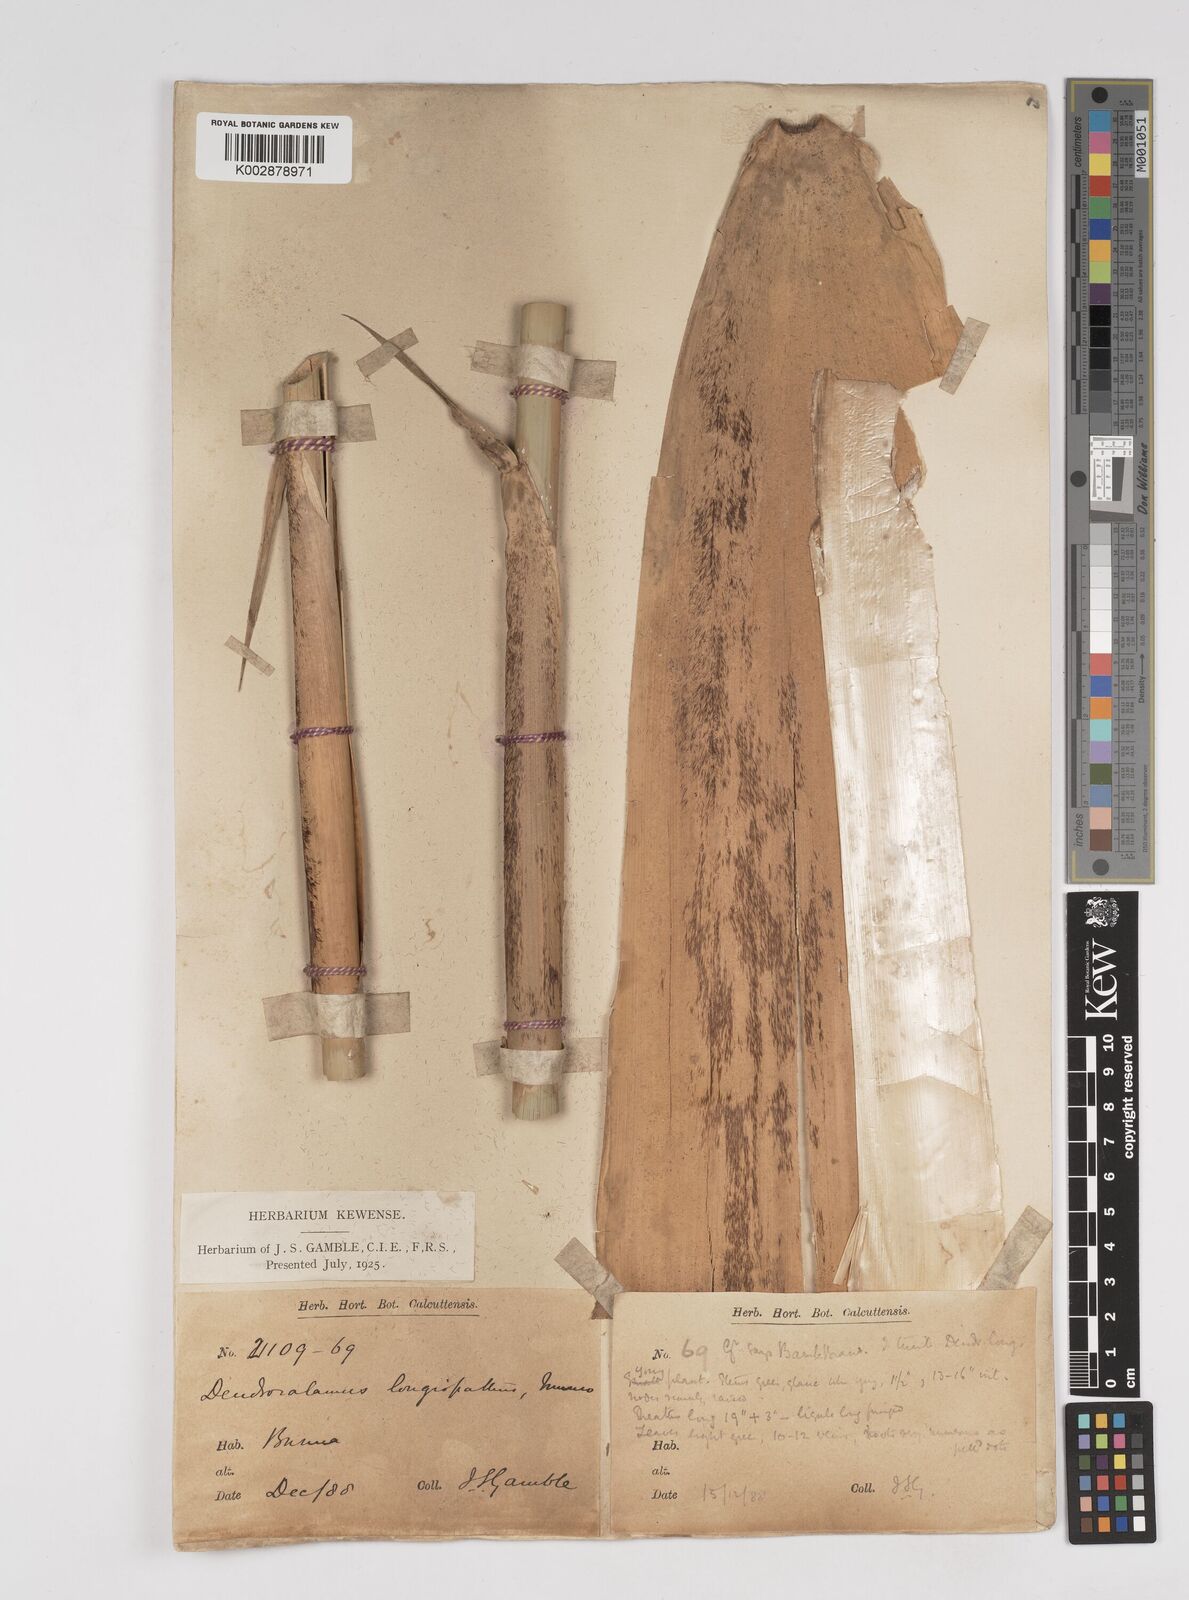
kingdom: Plantae
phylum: Tracheophyta
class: Liliopsida
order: Poales
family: Poaceae
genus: Dendrocalamus
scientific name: Dendrocalamus longispathus
